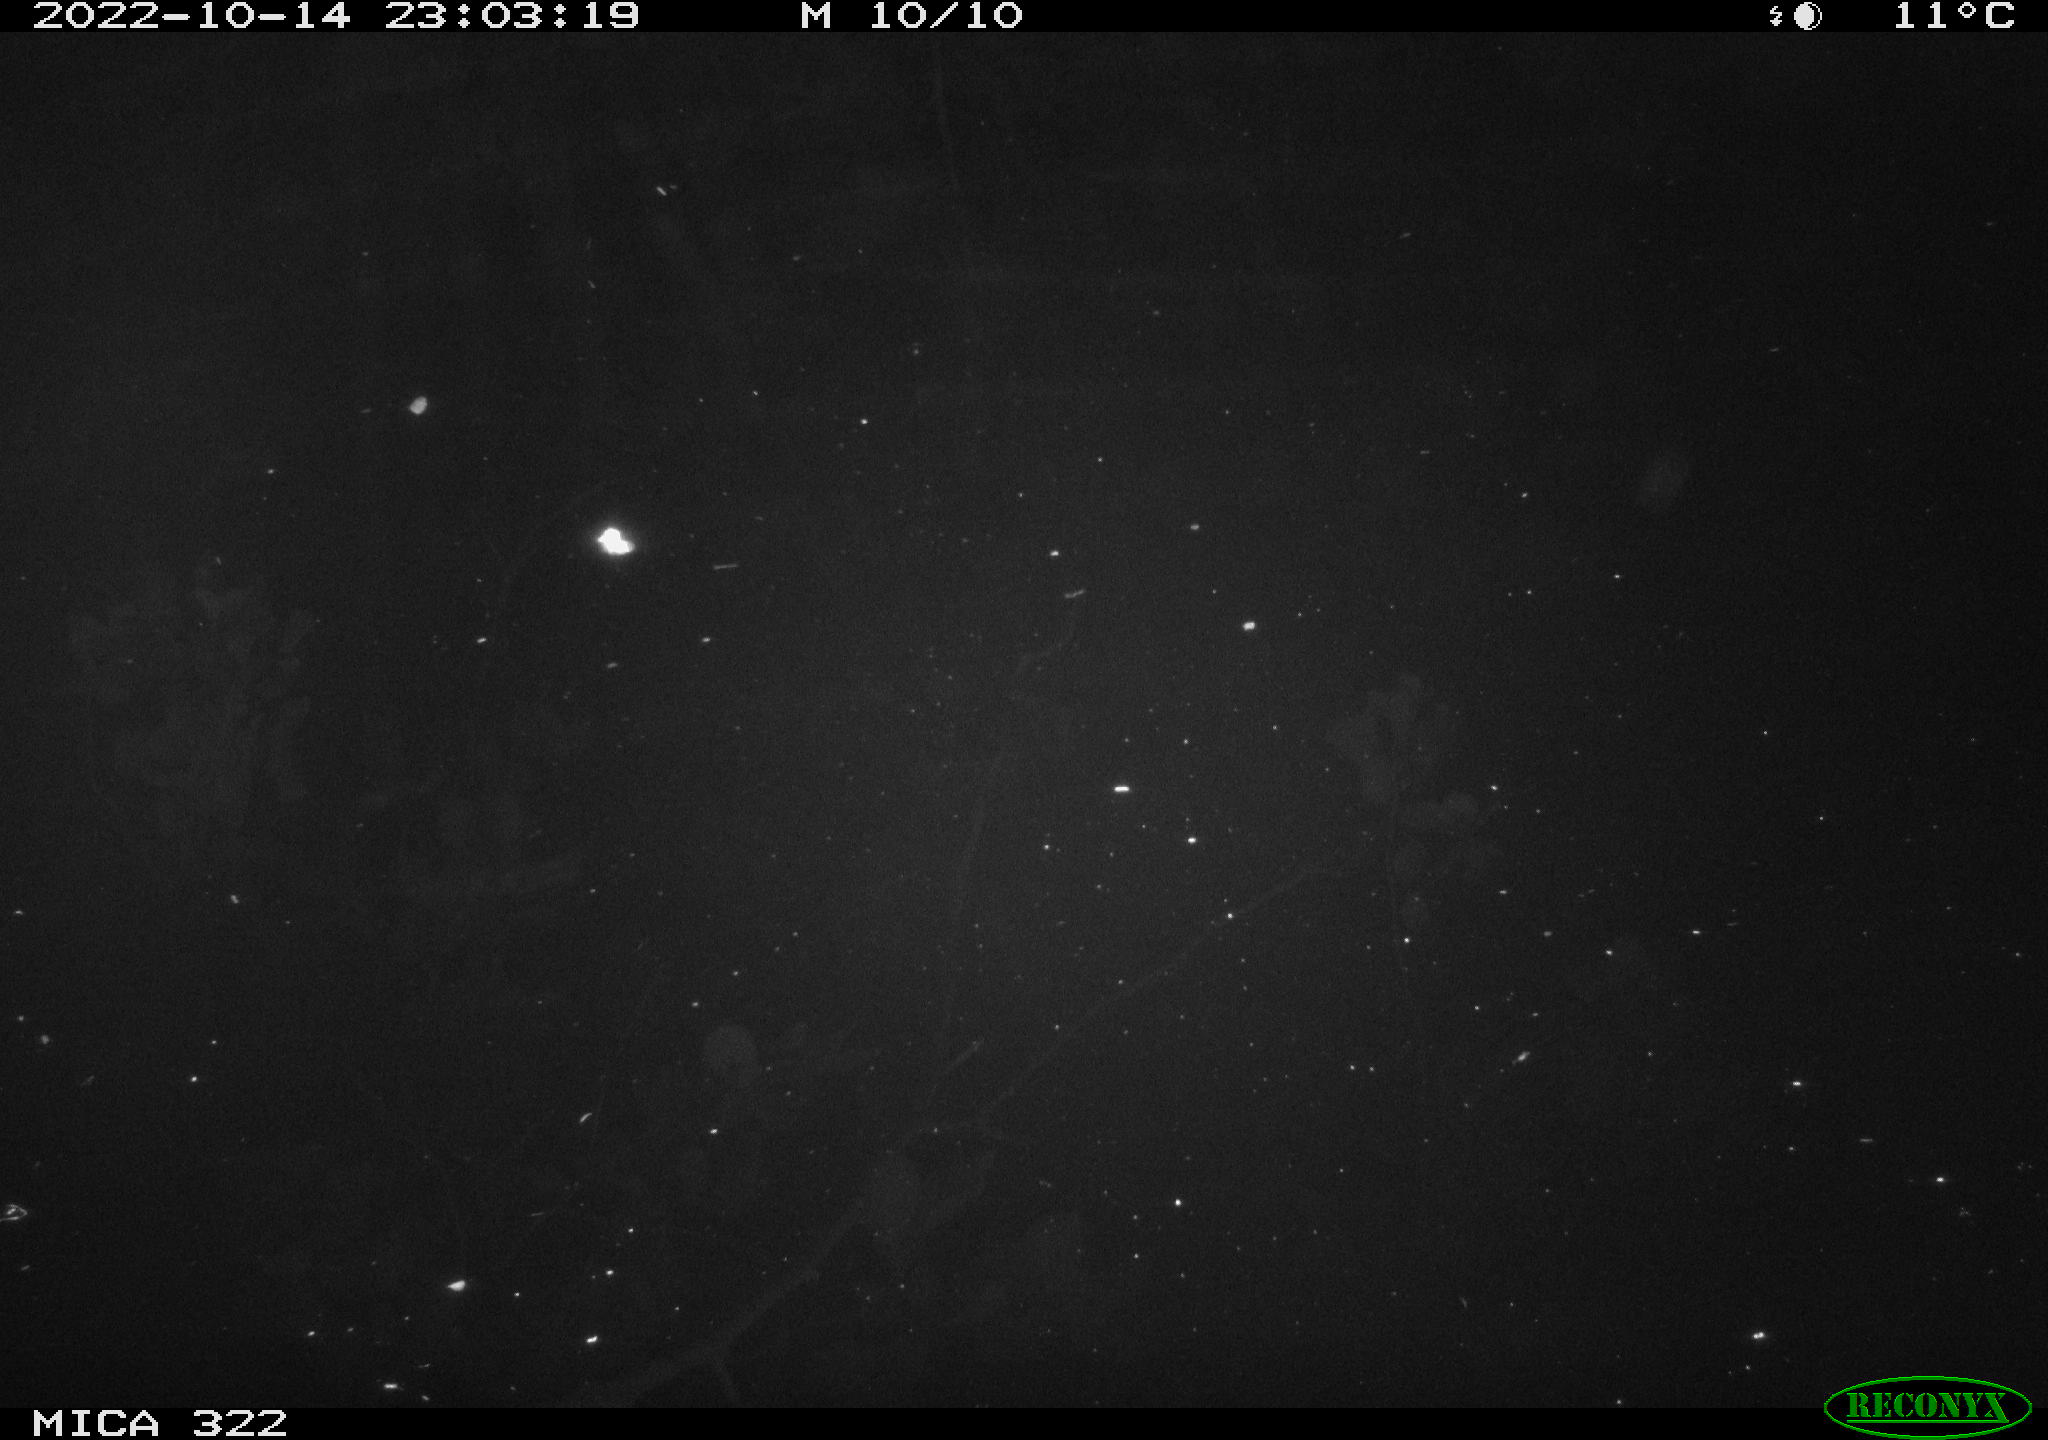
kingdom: Animalia
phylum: Chordata
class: Mammalia
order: Rodentia
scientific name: Rodentia
